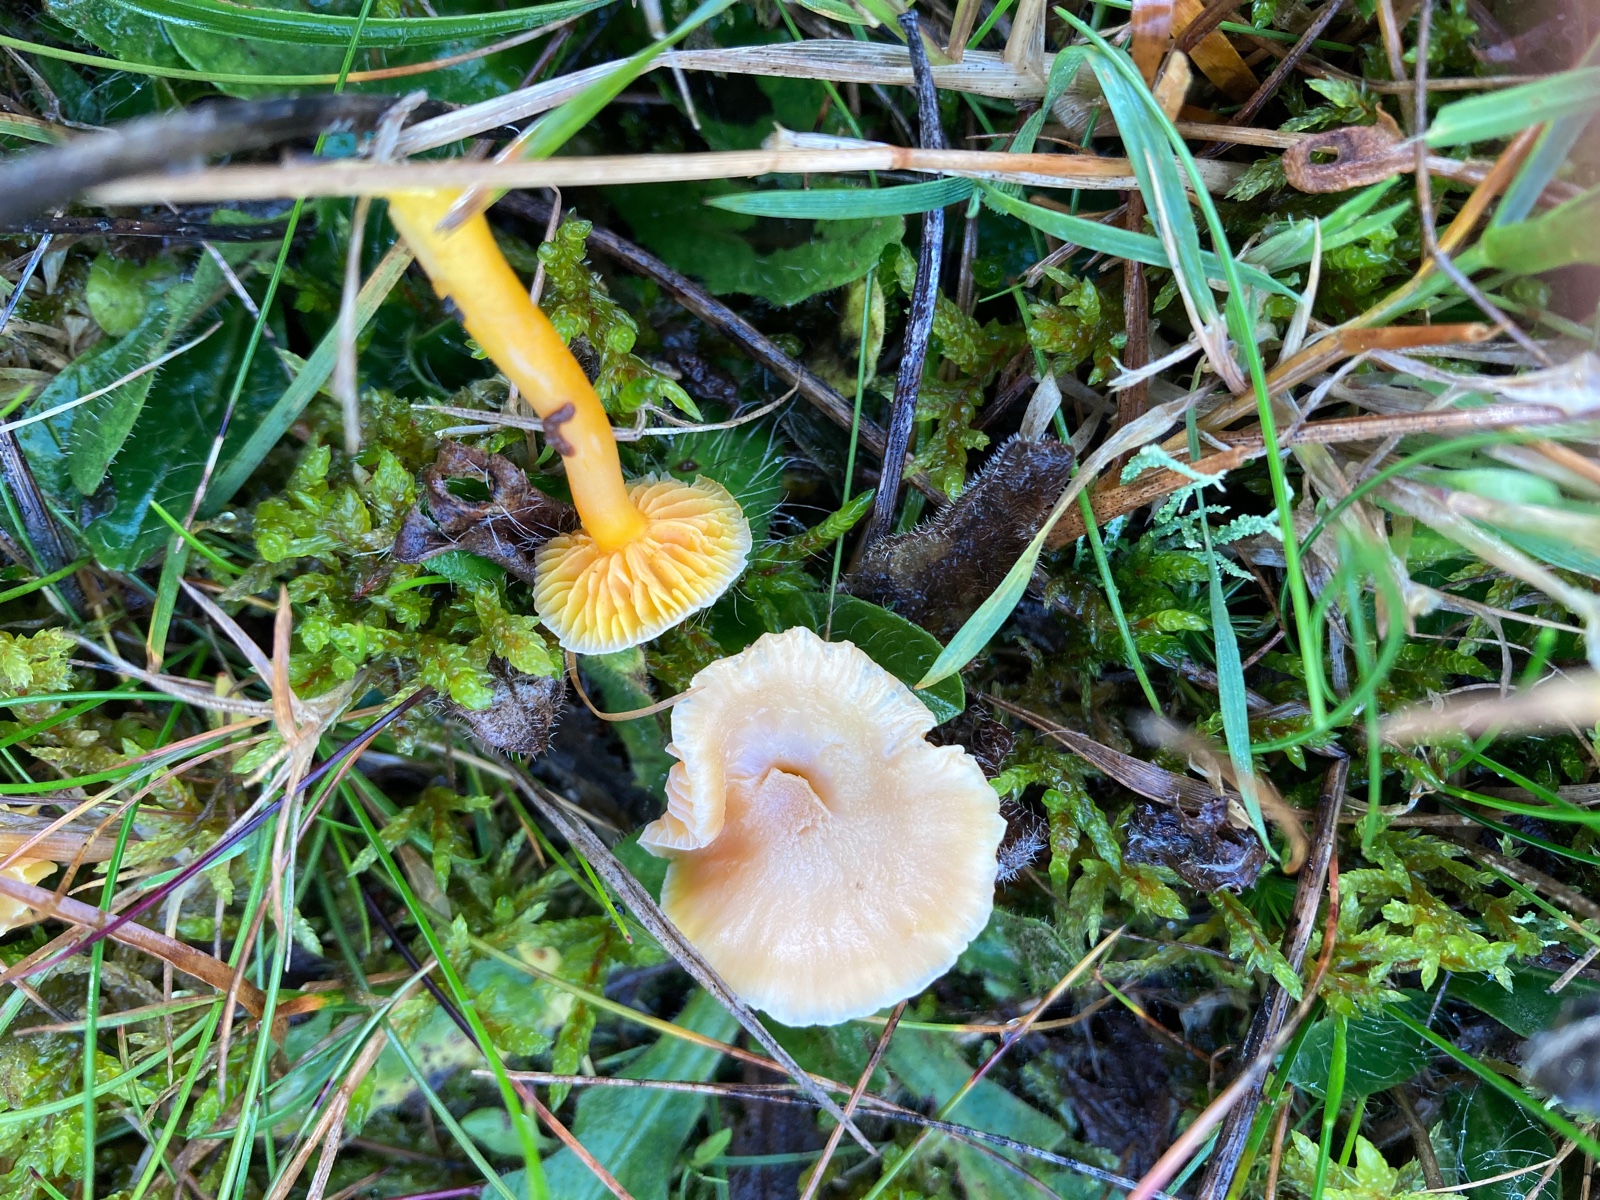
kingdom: Fungi
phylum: Basidiomycota
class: Agaricomycetes
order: Agaricales
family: Hygrophoraceae
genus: Hygrocybe
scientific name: Hygrocybe
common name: vokshat
